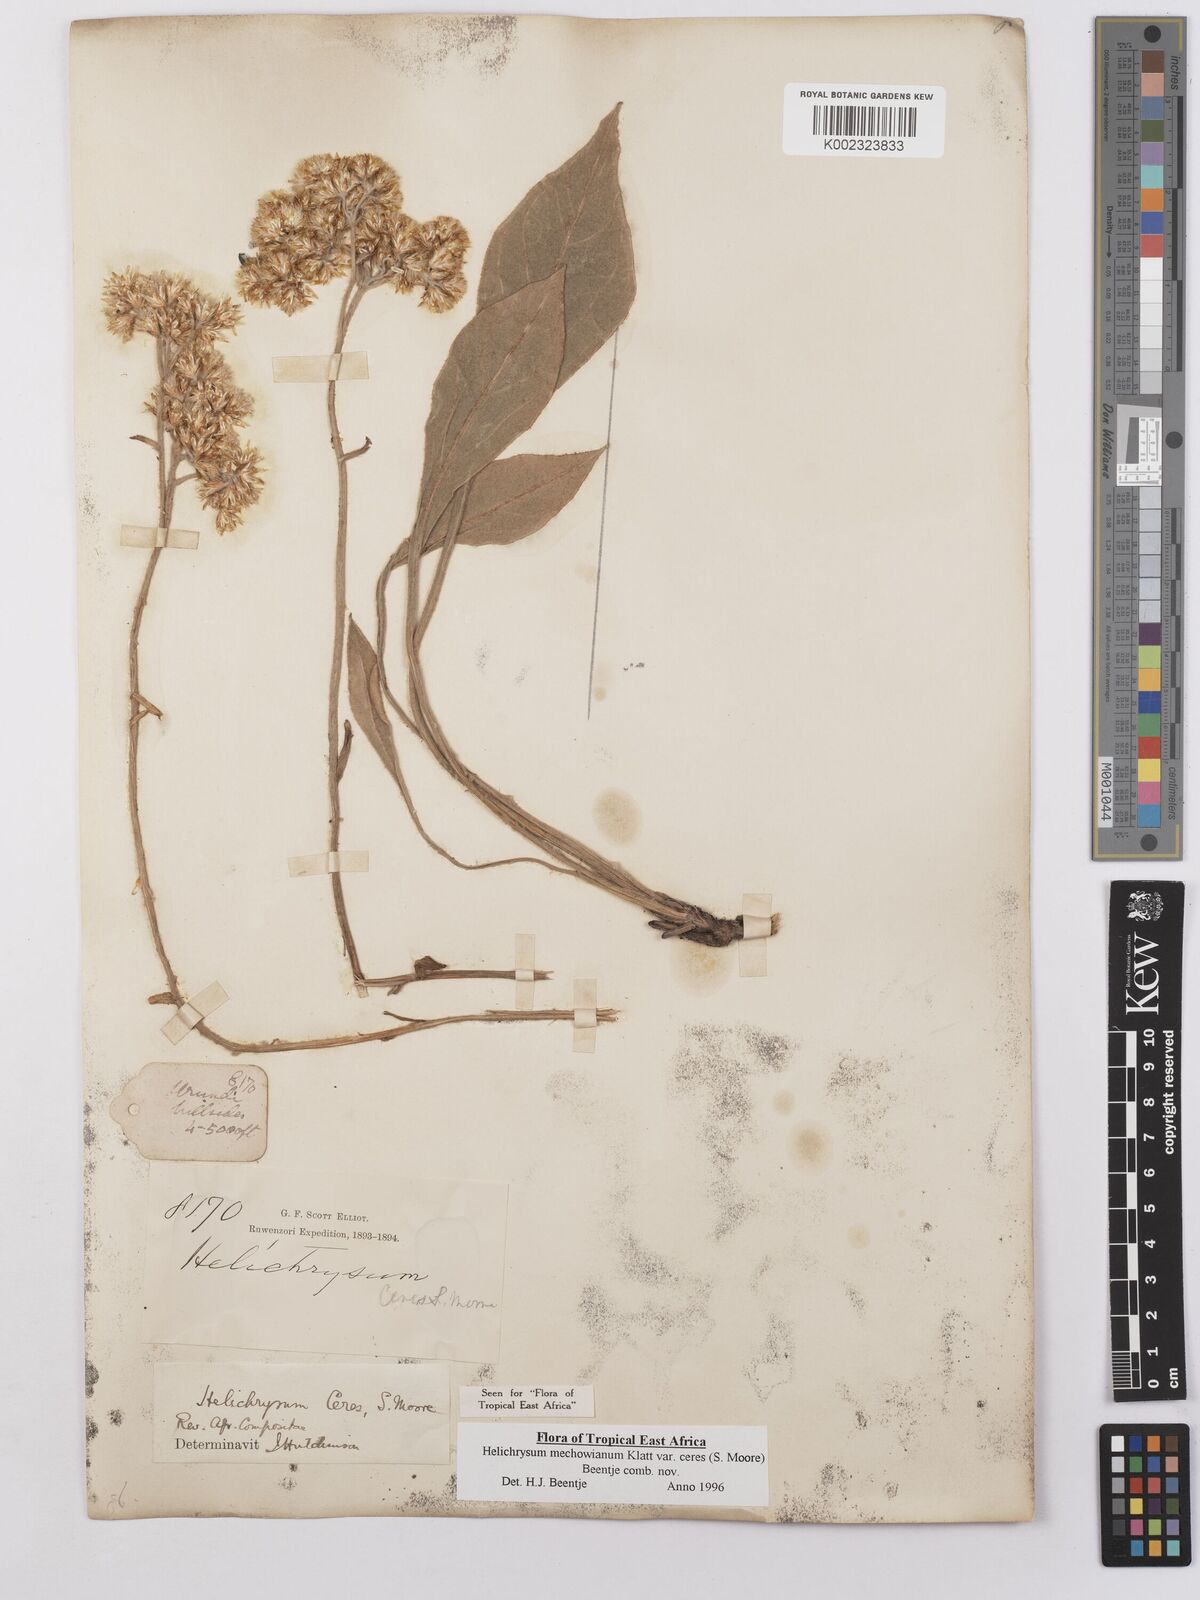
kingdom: Plantae
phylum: Tracheophyta
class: Magnoliopsida
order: Asterales
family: Asteraceae
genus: Helichrysum
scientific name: Helichrysum mechowianum
